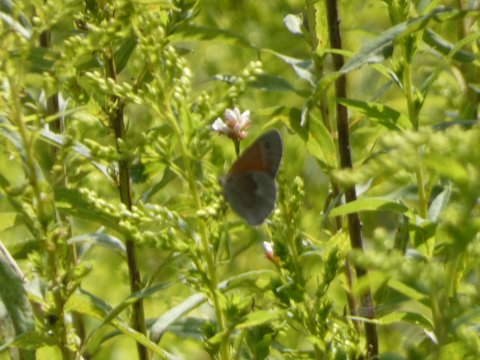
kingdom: Animalia
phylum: Arthropoda
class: Insecta
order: Lepidoptera
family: Nymphalidae
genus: Coenonympha
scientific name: Coenonympha tullia
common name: Large Heath
